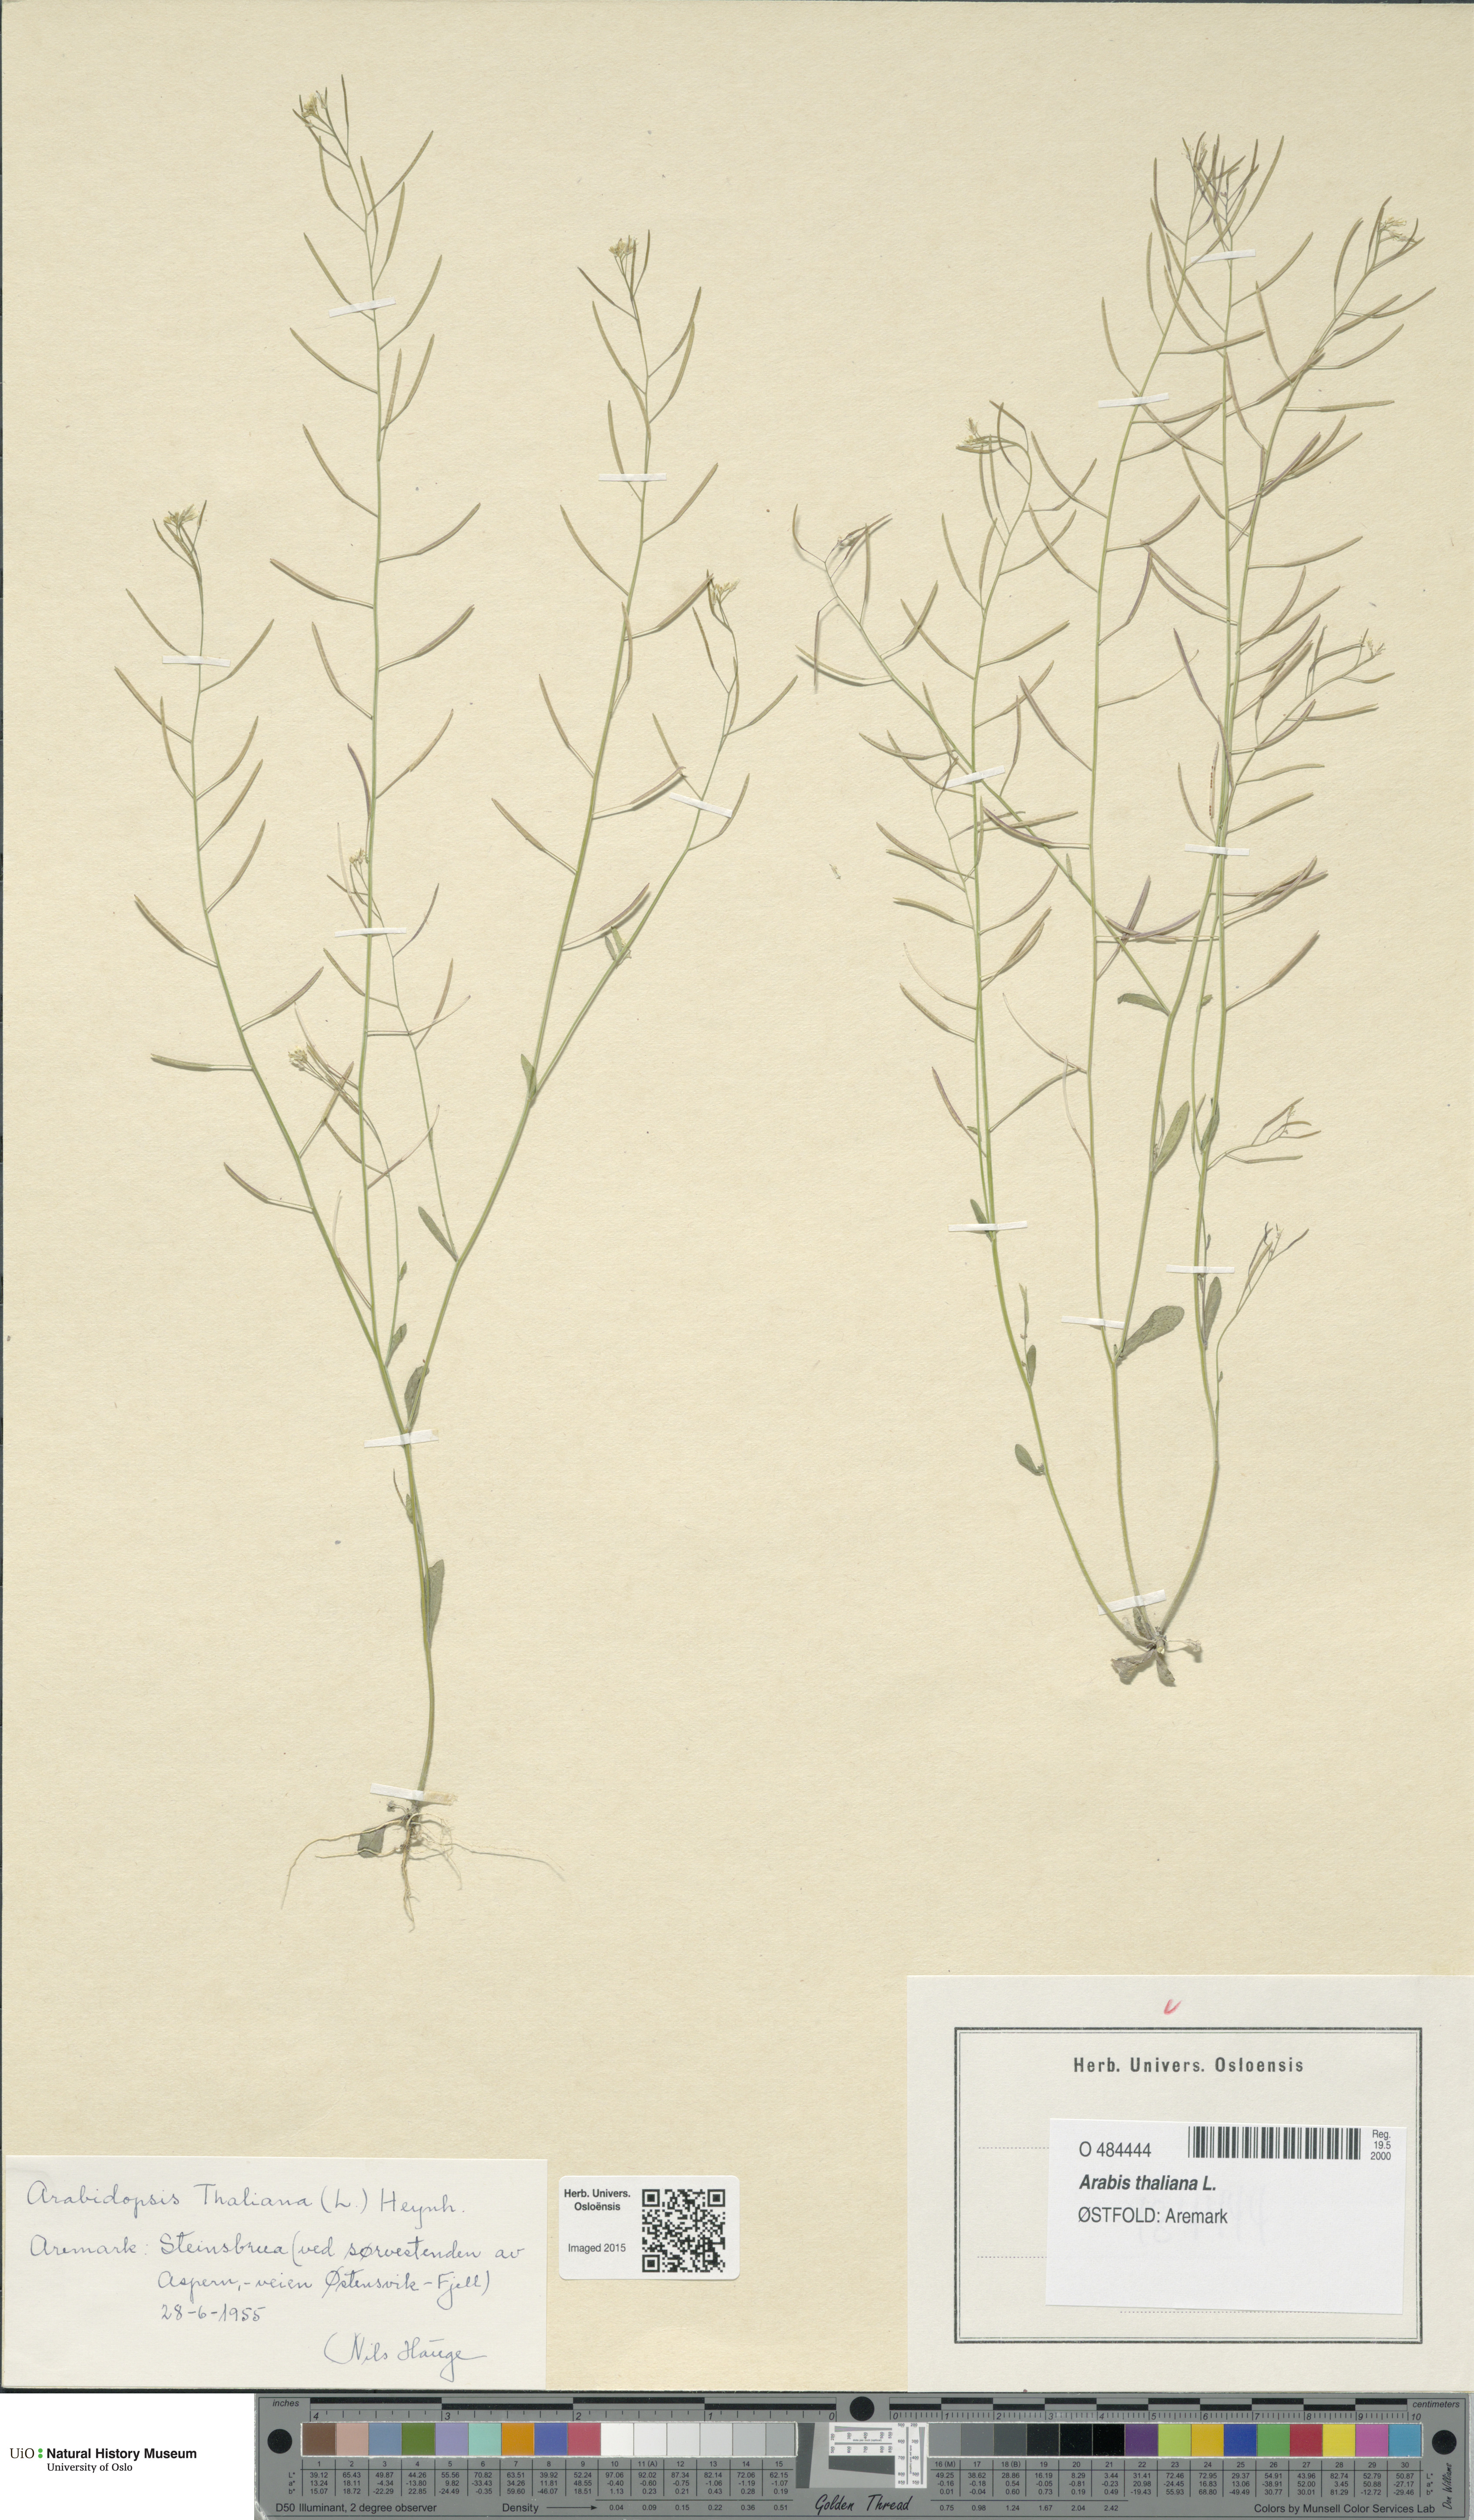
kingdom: Plantae
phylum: Tracheophyta
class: Magnoliopsida
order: Brassicales
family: Brassicaceae
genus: Arabidopsis
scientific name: Arabidopsis thaliana
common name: Thale cress
